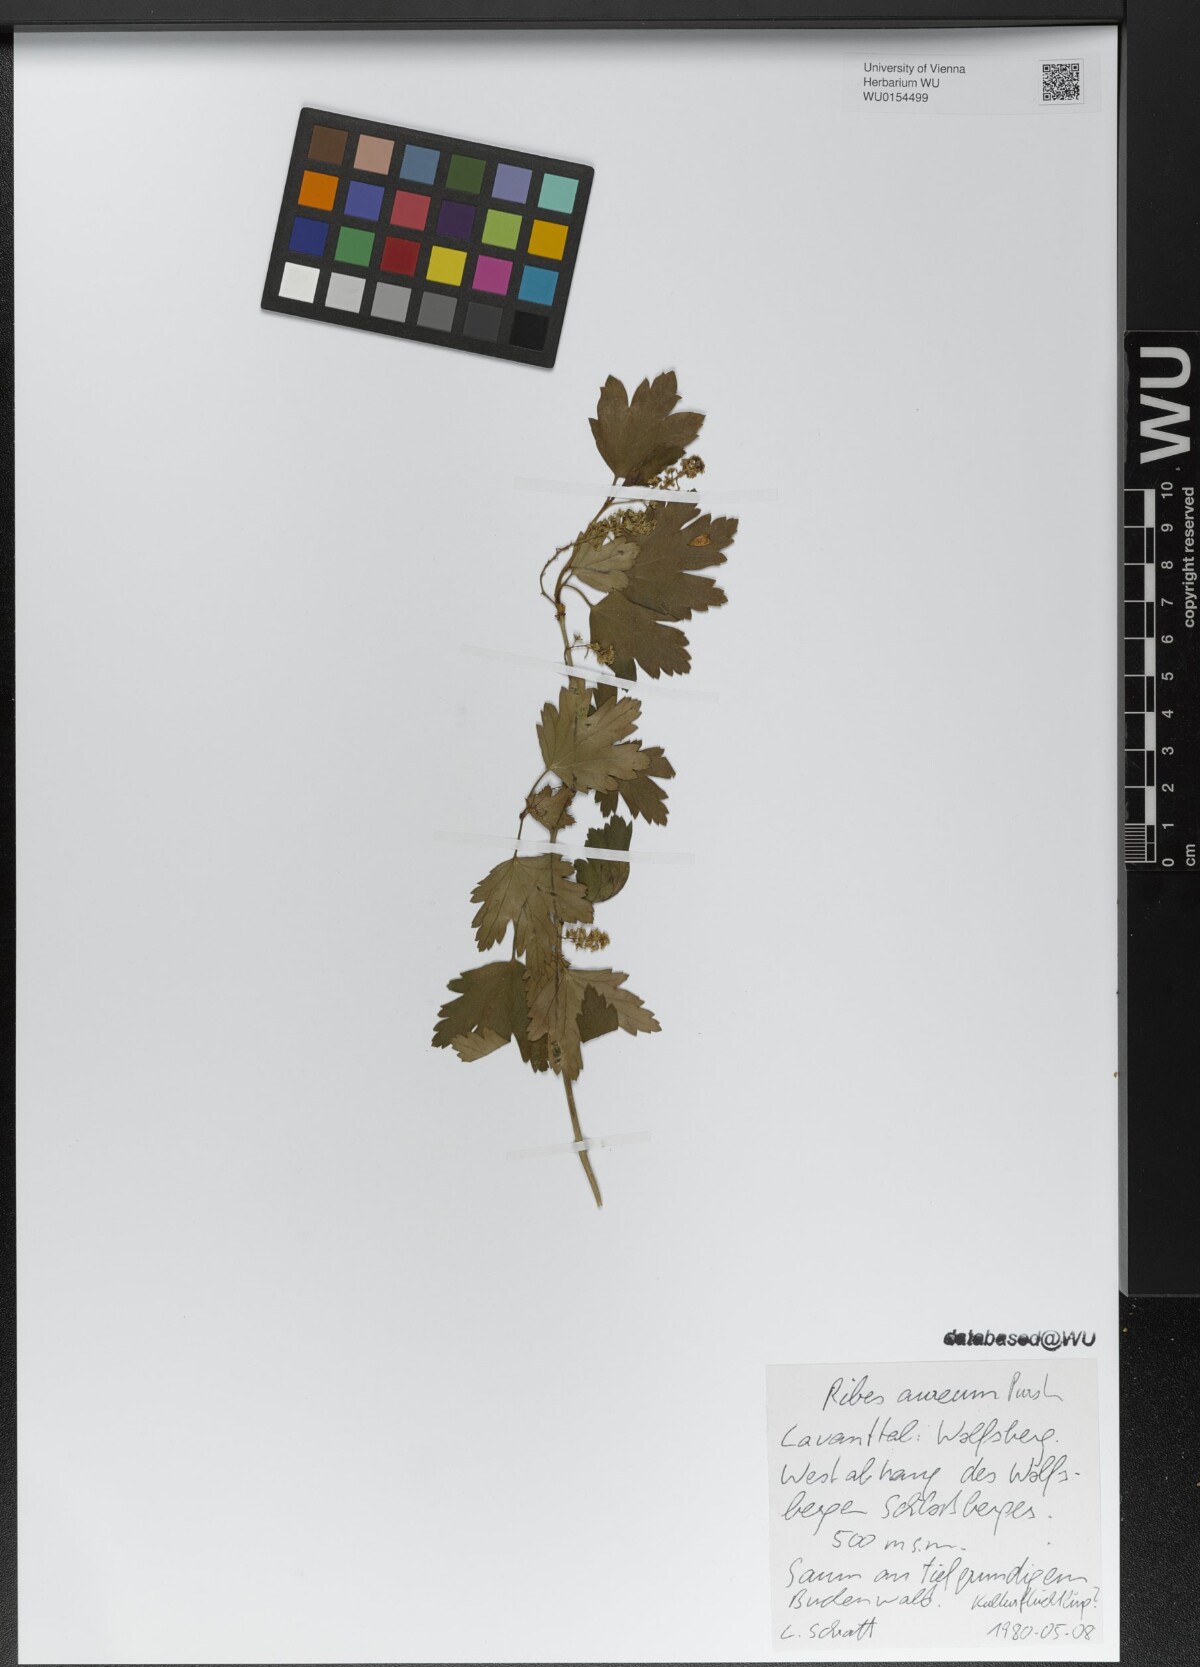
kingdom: Plantae
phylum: Tracheophyta
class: Magnoliopsida
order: Saxifragales
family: Grossulariaceae
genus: Ribes
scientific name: Ribes aureum
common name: Golden currant
